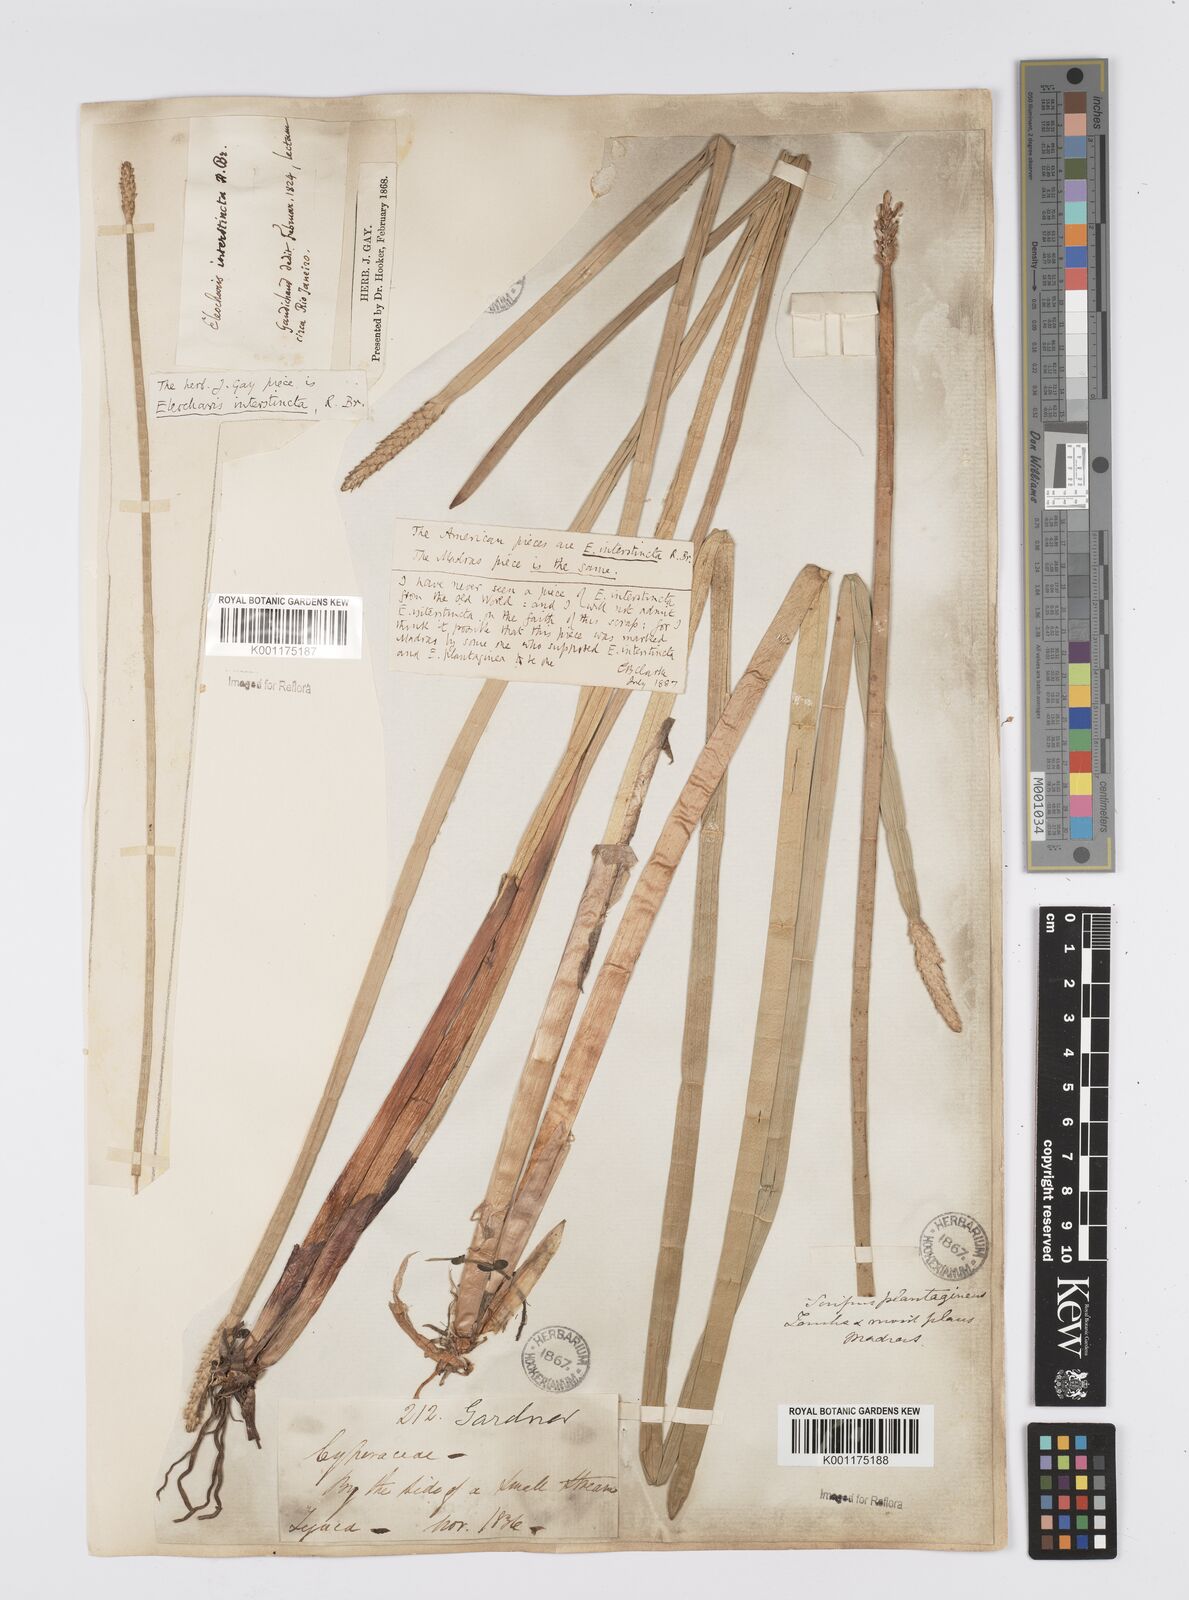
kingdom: Plantae
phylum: Tracheophyta
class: Liliopsida
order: Poales
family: Cyperaceae
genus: Eleocharis
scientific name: Eleocharis interstincta
